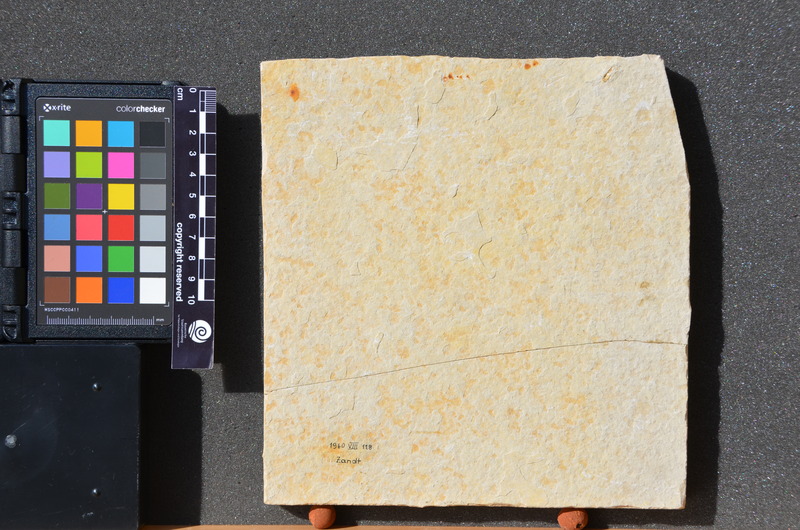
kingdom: Animalia
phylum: Chordata
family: Aspidorhynchidae
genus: Belonostomus
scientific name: Belonostomus
